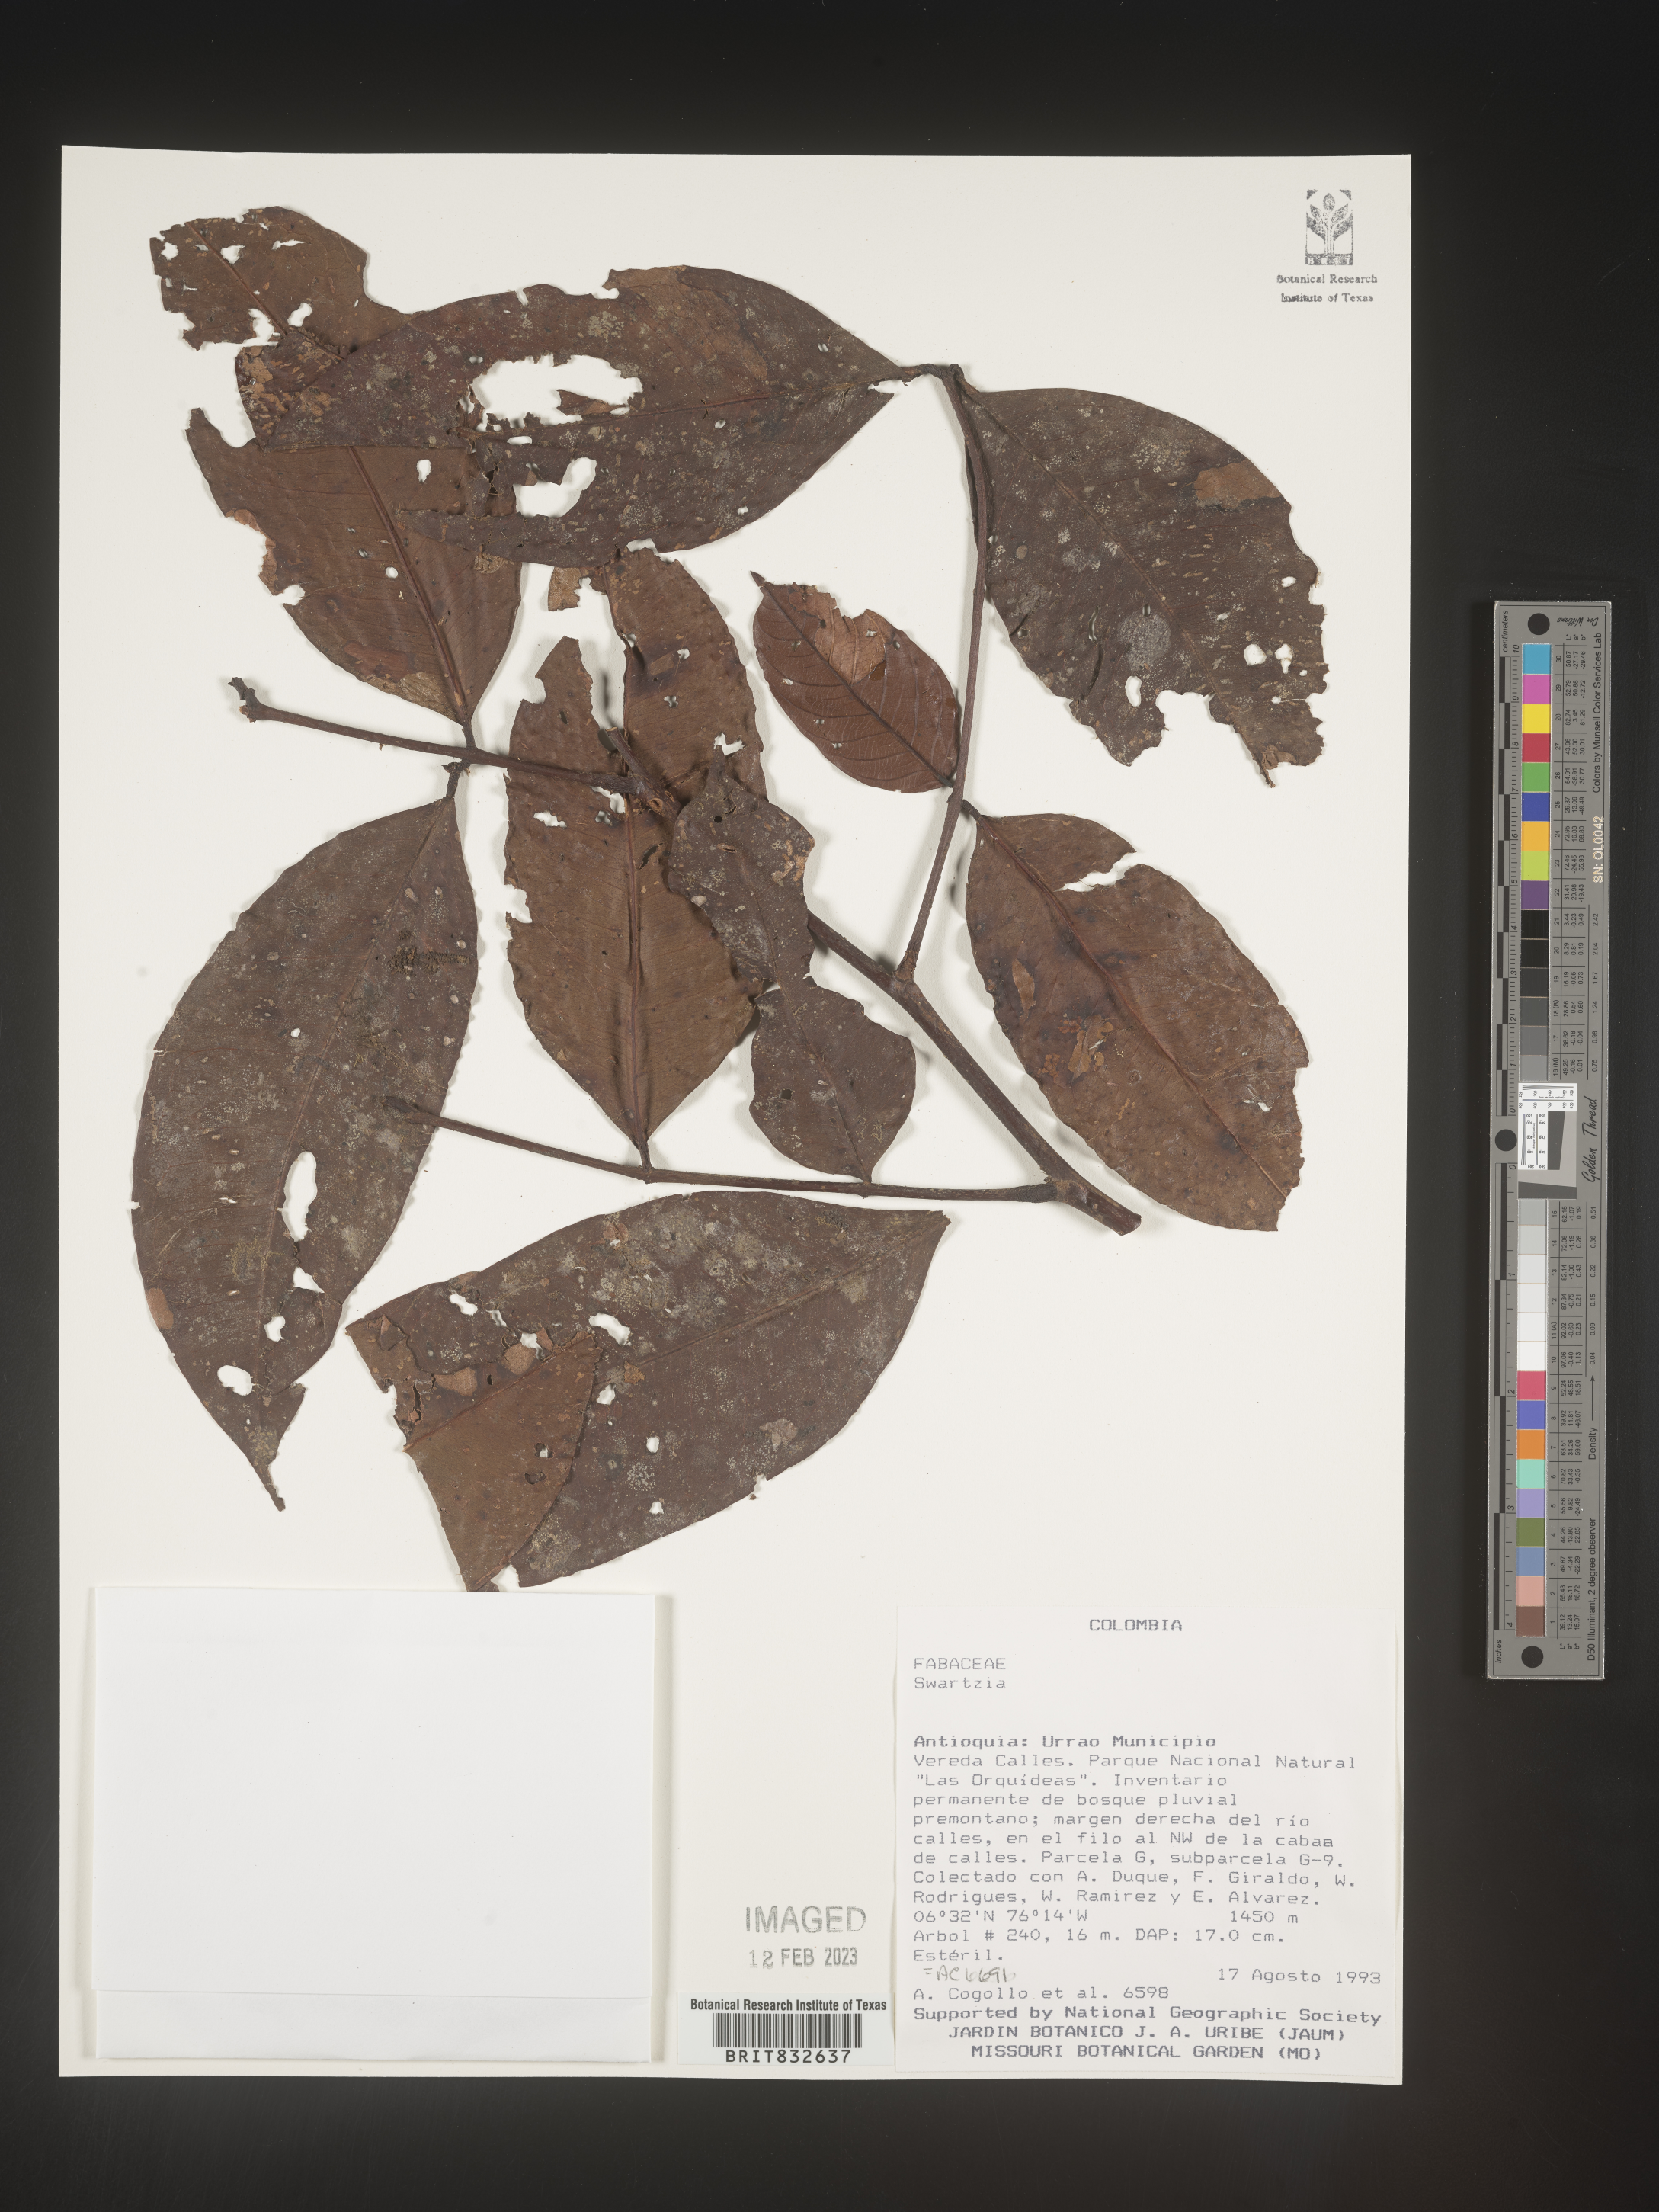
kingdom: Plantae
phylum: Tracheophyta
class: Magnoliopsida
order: Fabales
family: Fabaceae
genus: Swartzia
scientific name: Swartzia
